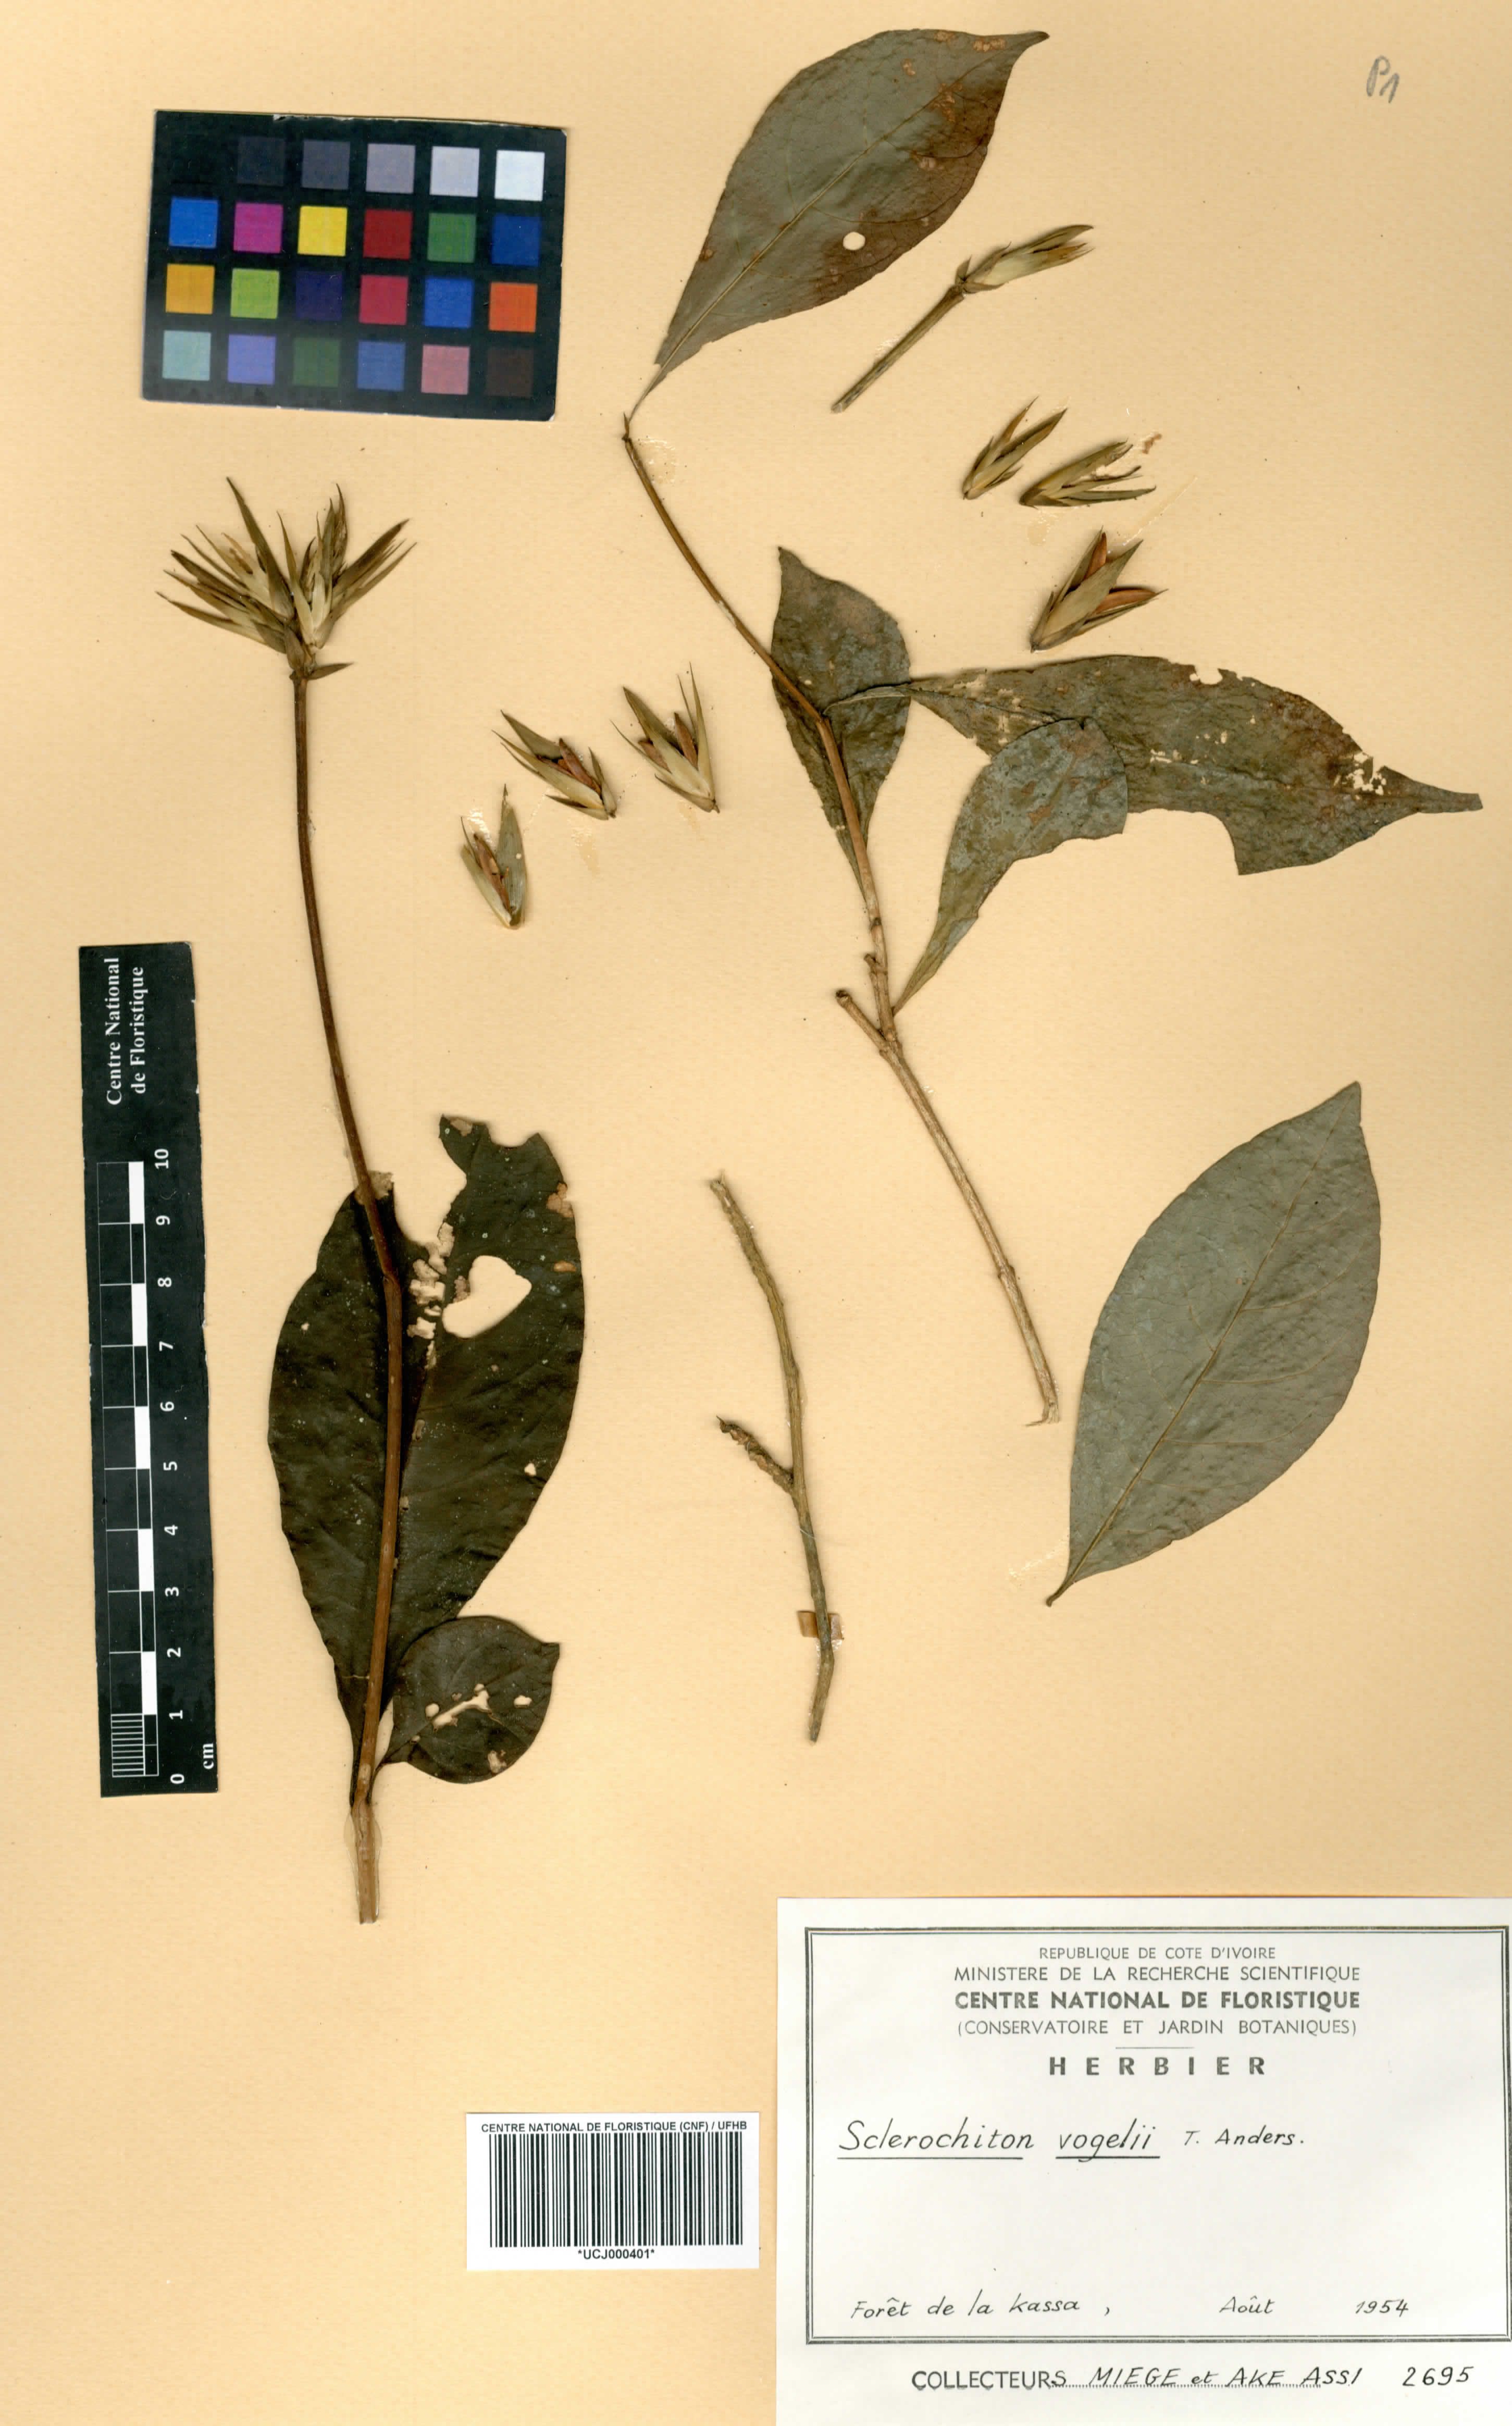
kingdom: Plantae
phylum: Tracheophyta
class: Magnoliopsida
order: Lamiales
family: Acanthaceae
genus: Sclerochiton
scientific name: Sclerochiton vogelii
